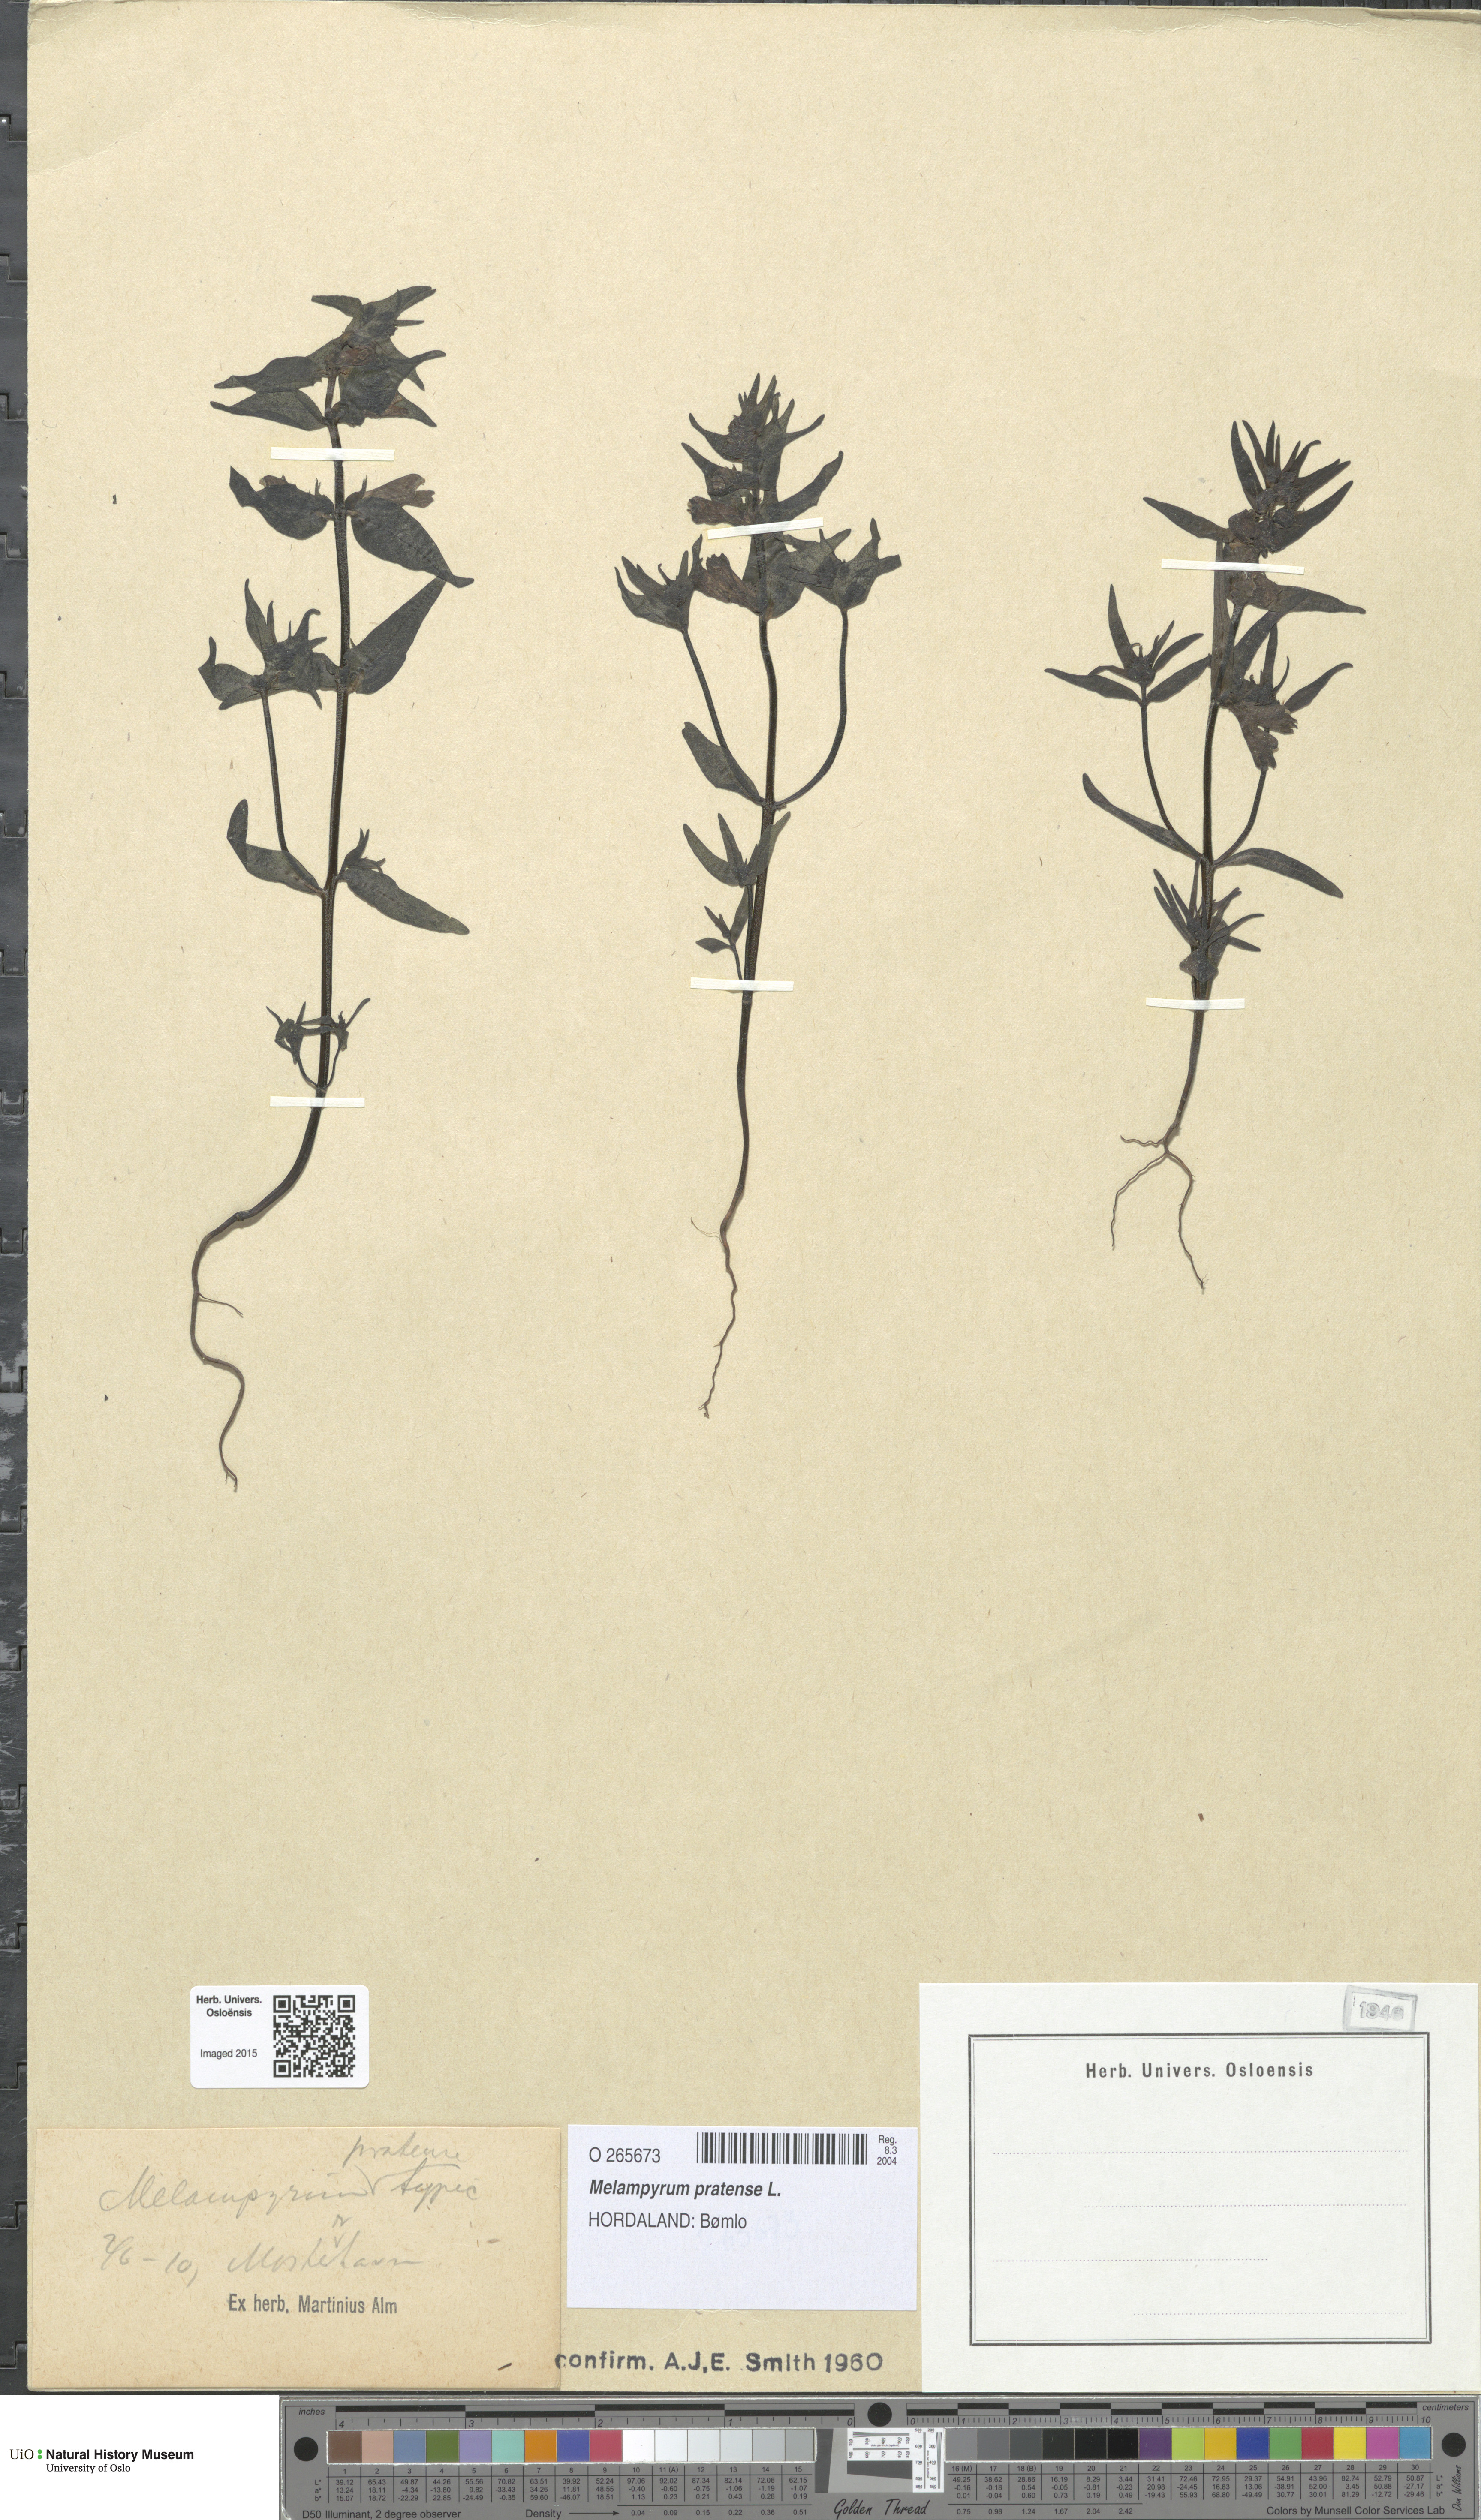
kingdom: Plantae
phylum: Tracheophyta
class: Magnoliopsida
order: Lamiales
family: Orobanchaceae
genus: Melampyrum
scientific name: Melampyrum pratense
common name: Common cow-wheat
